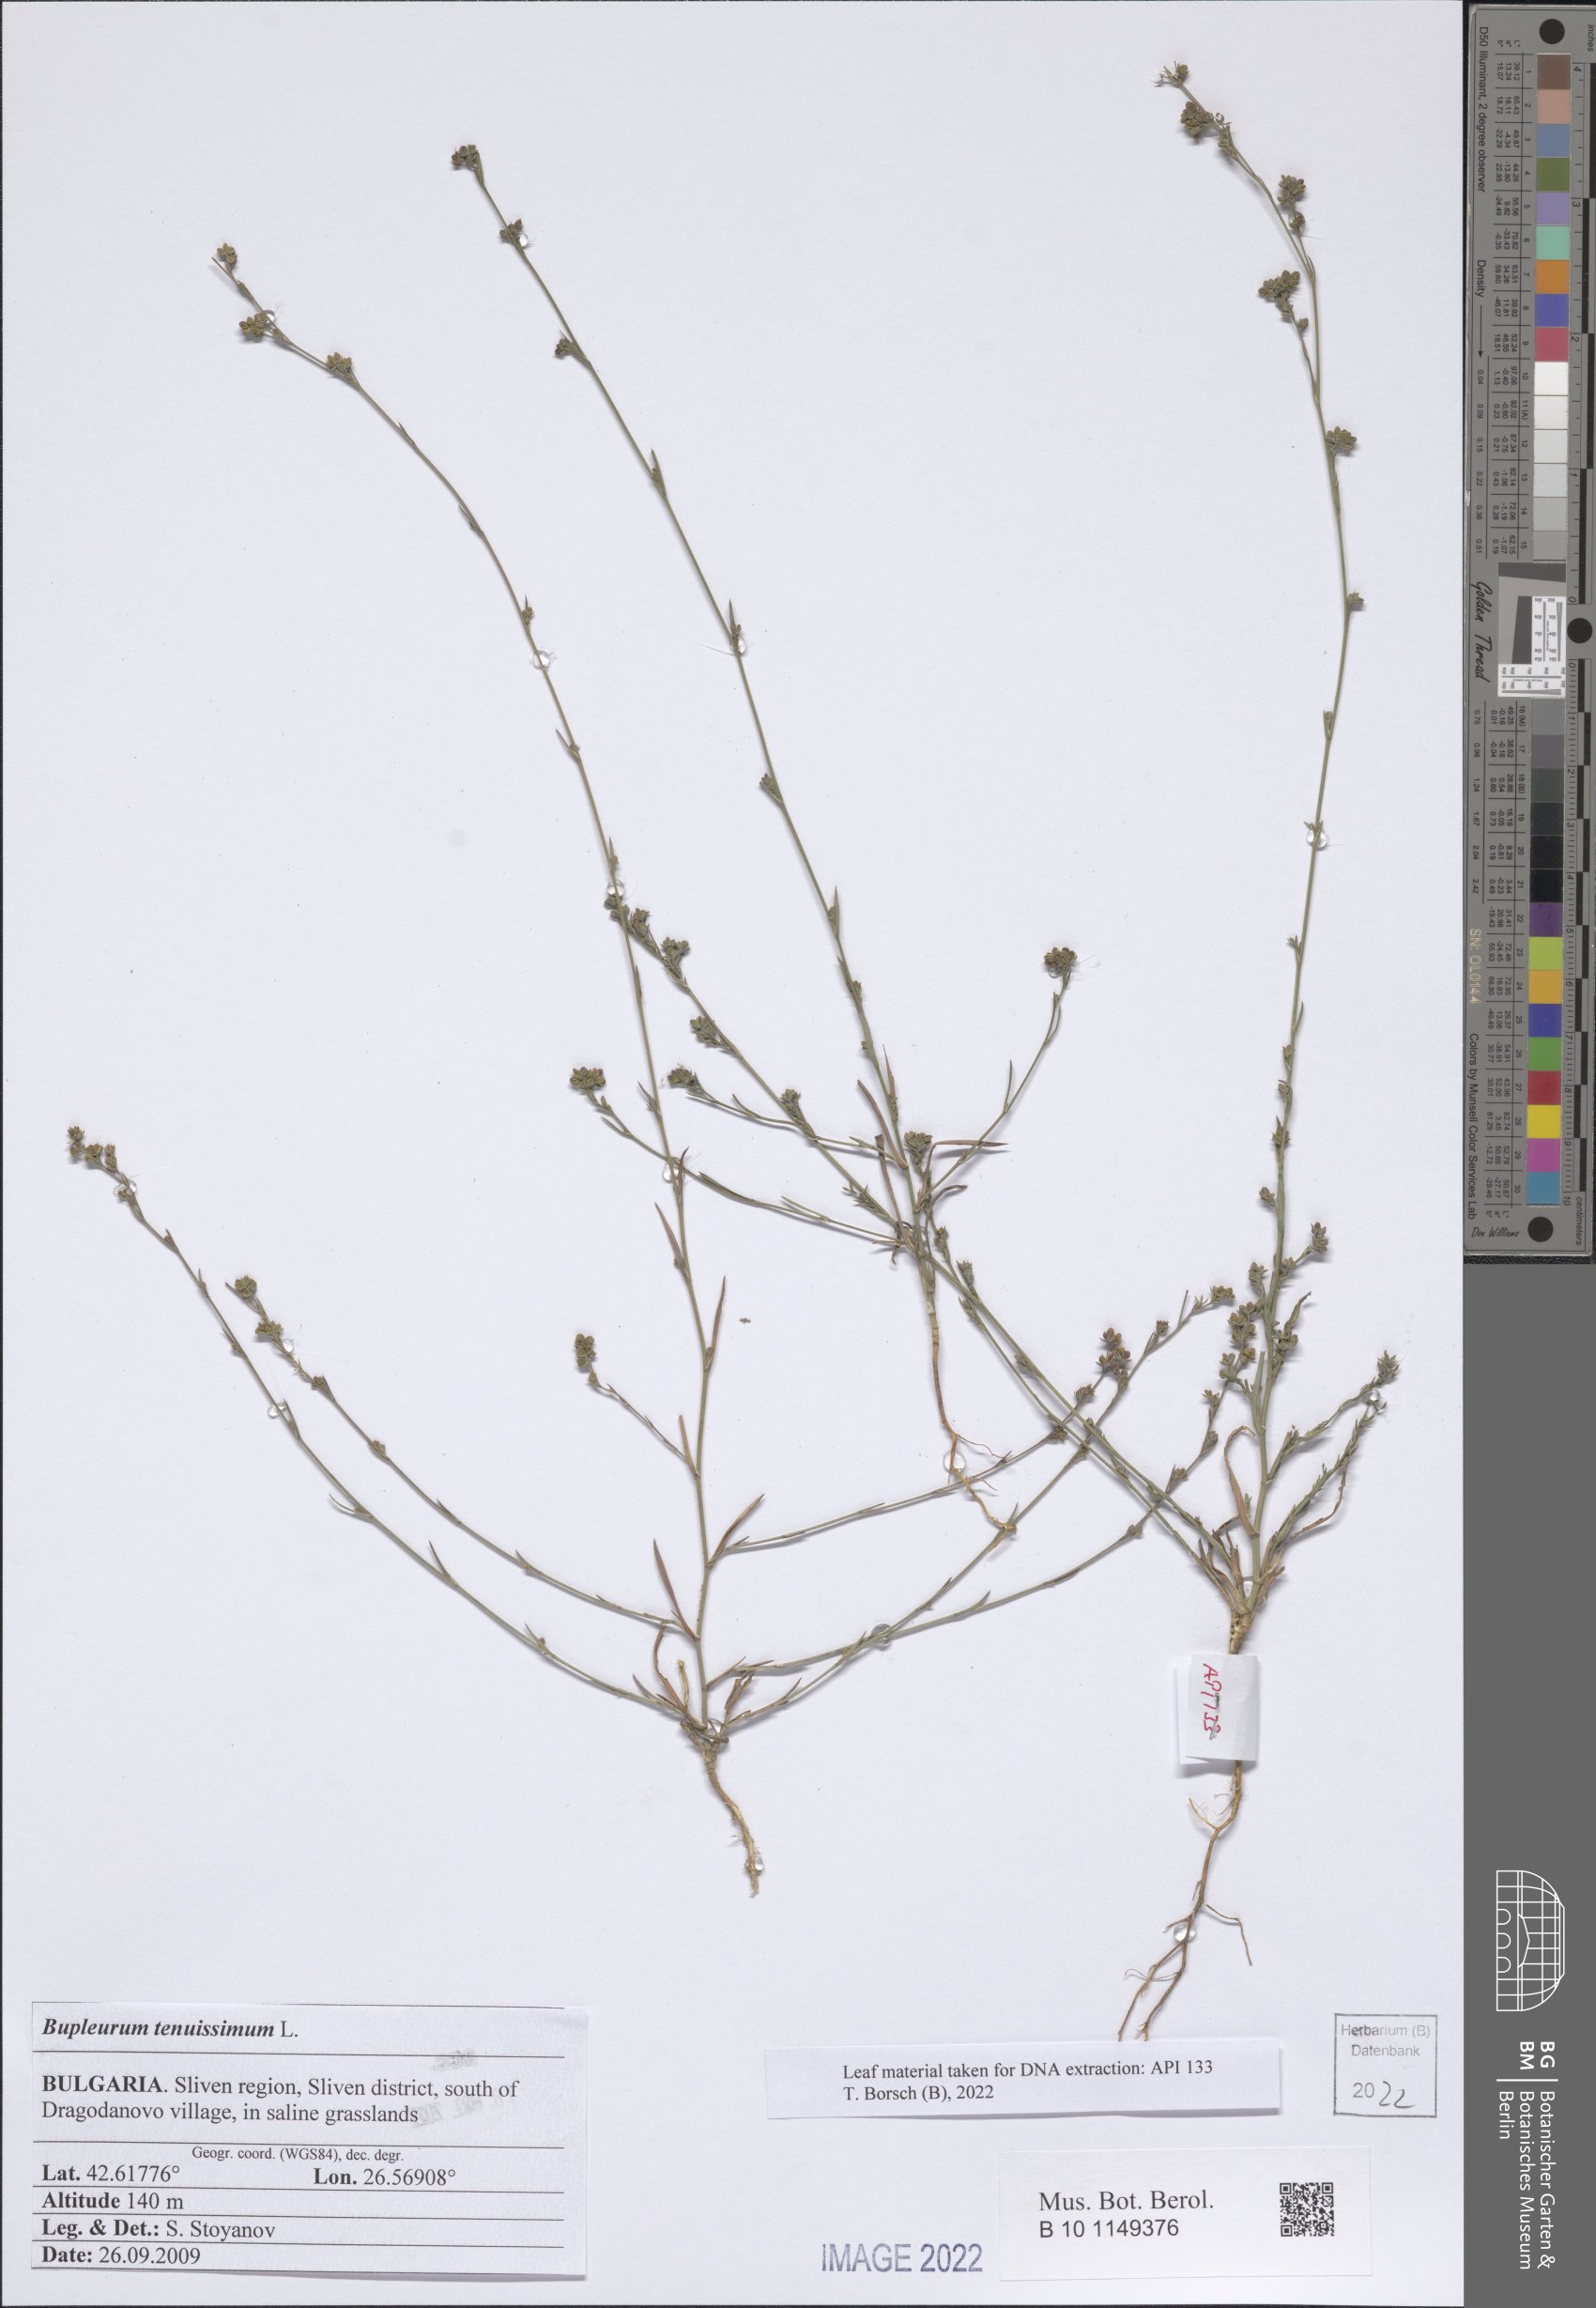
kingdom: Plantae
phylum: Tracheophyta
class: Magnoliopsida
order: Apiales
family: Apiaceae
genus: Bupleurum
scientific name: Bupleurum tenuissimum
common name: Slender hare's-ear
